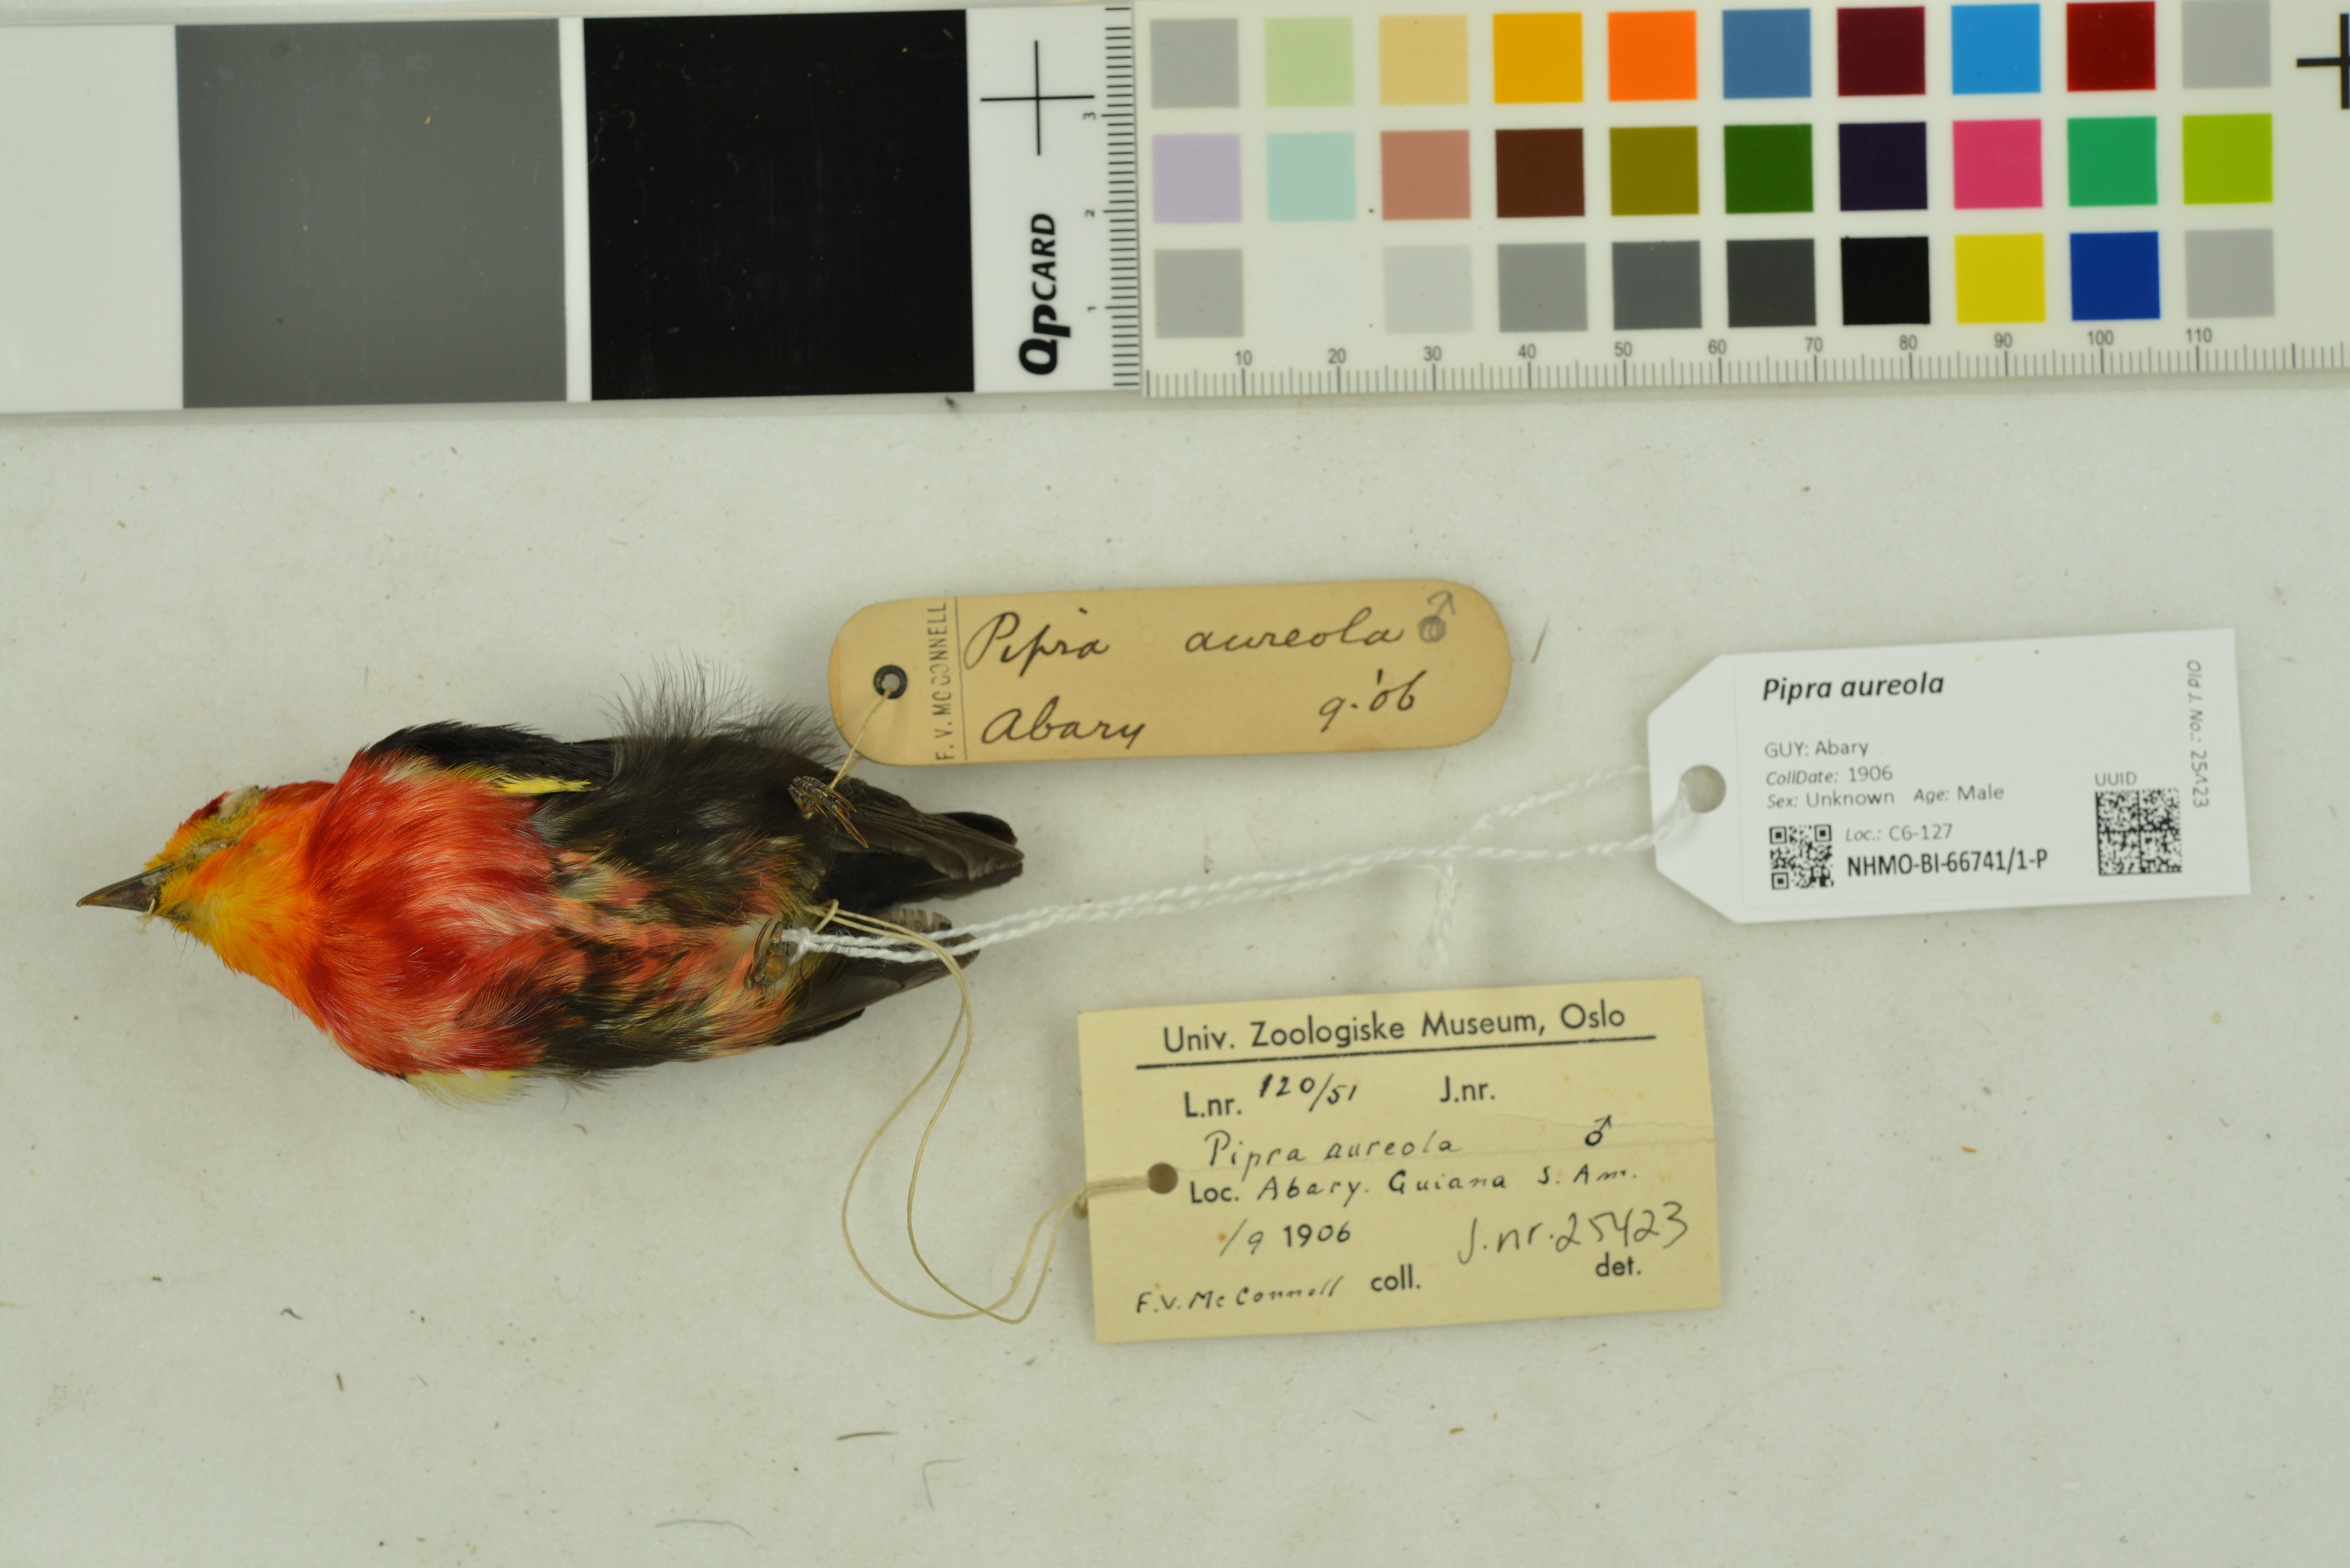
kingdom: Animalia
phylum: Chordata
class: Aves
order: Passeriformes
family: Pipridae
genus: Pipra
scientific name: Pipra aureola
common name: Crimson-hooded manakin
